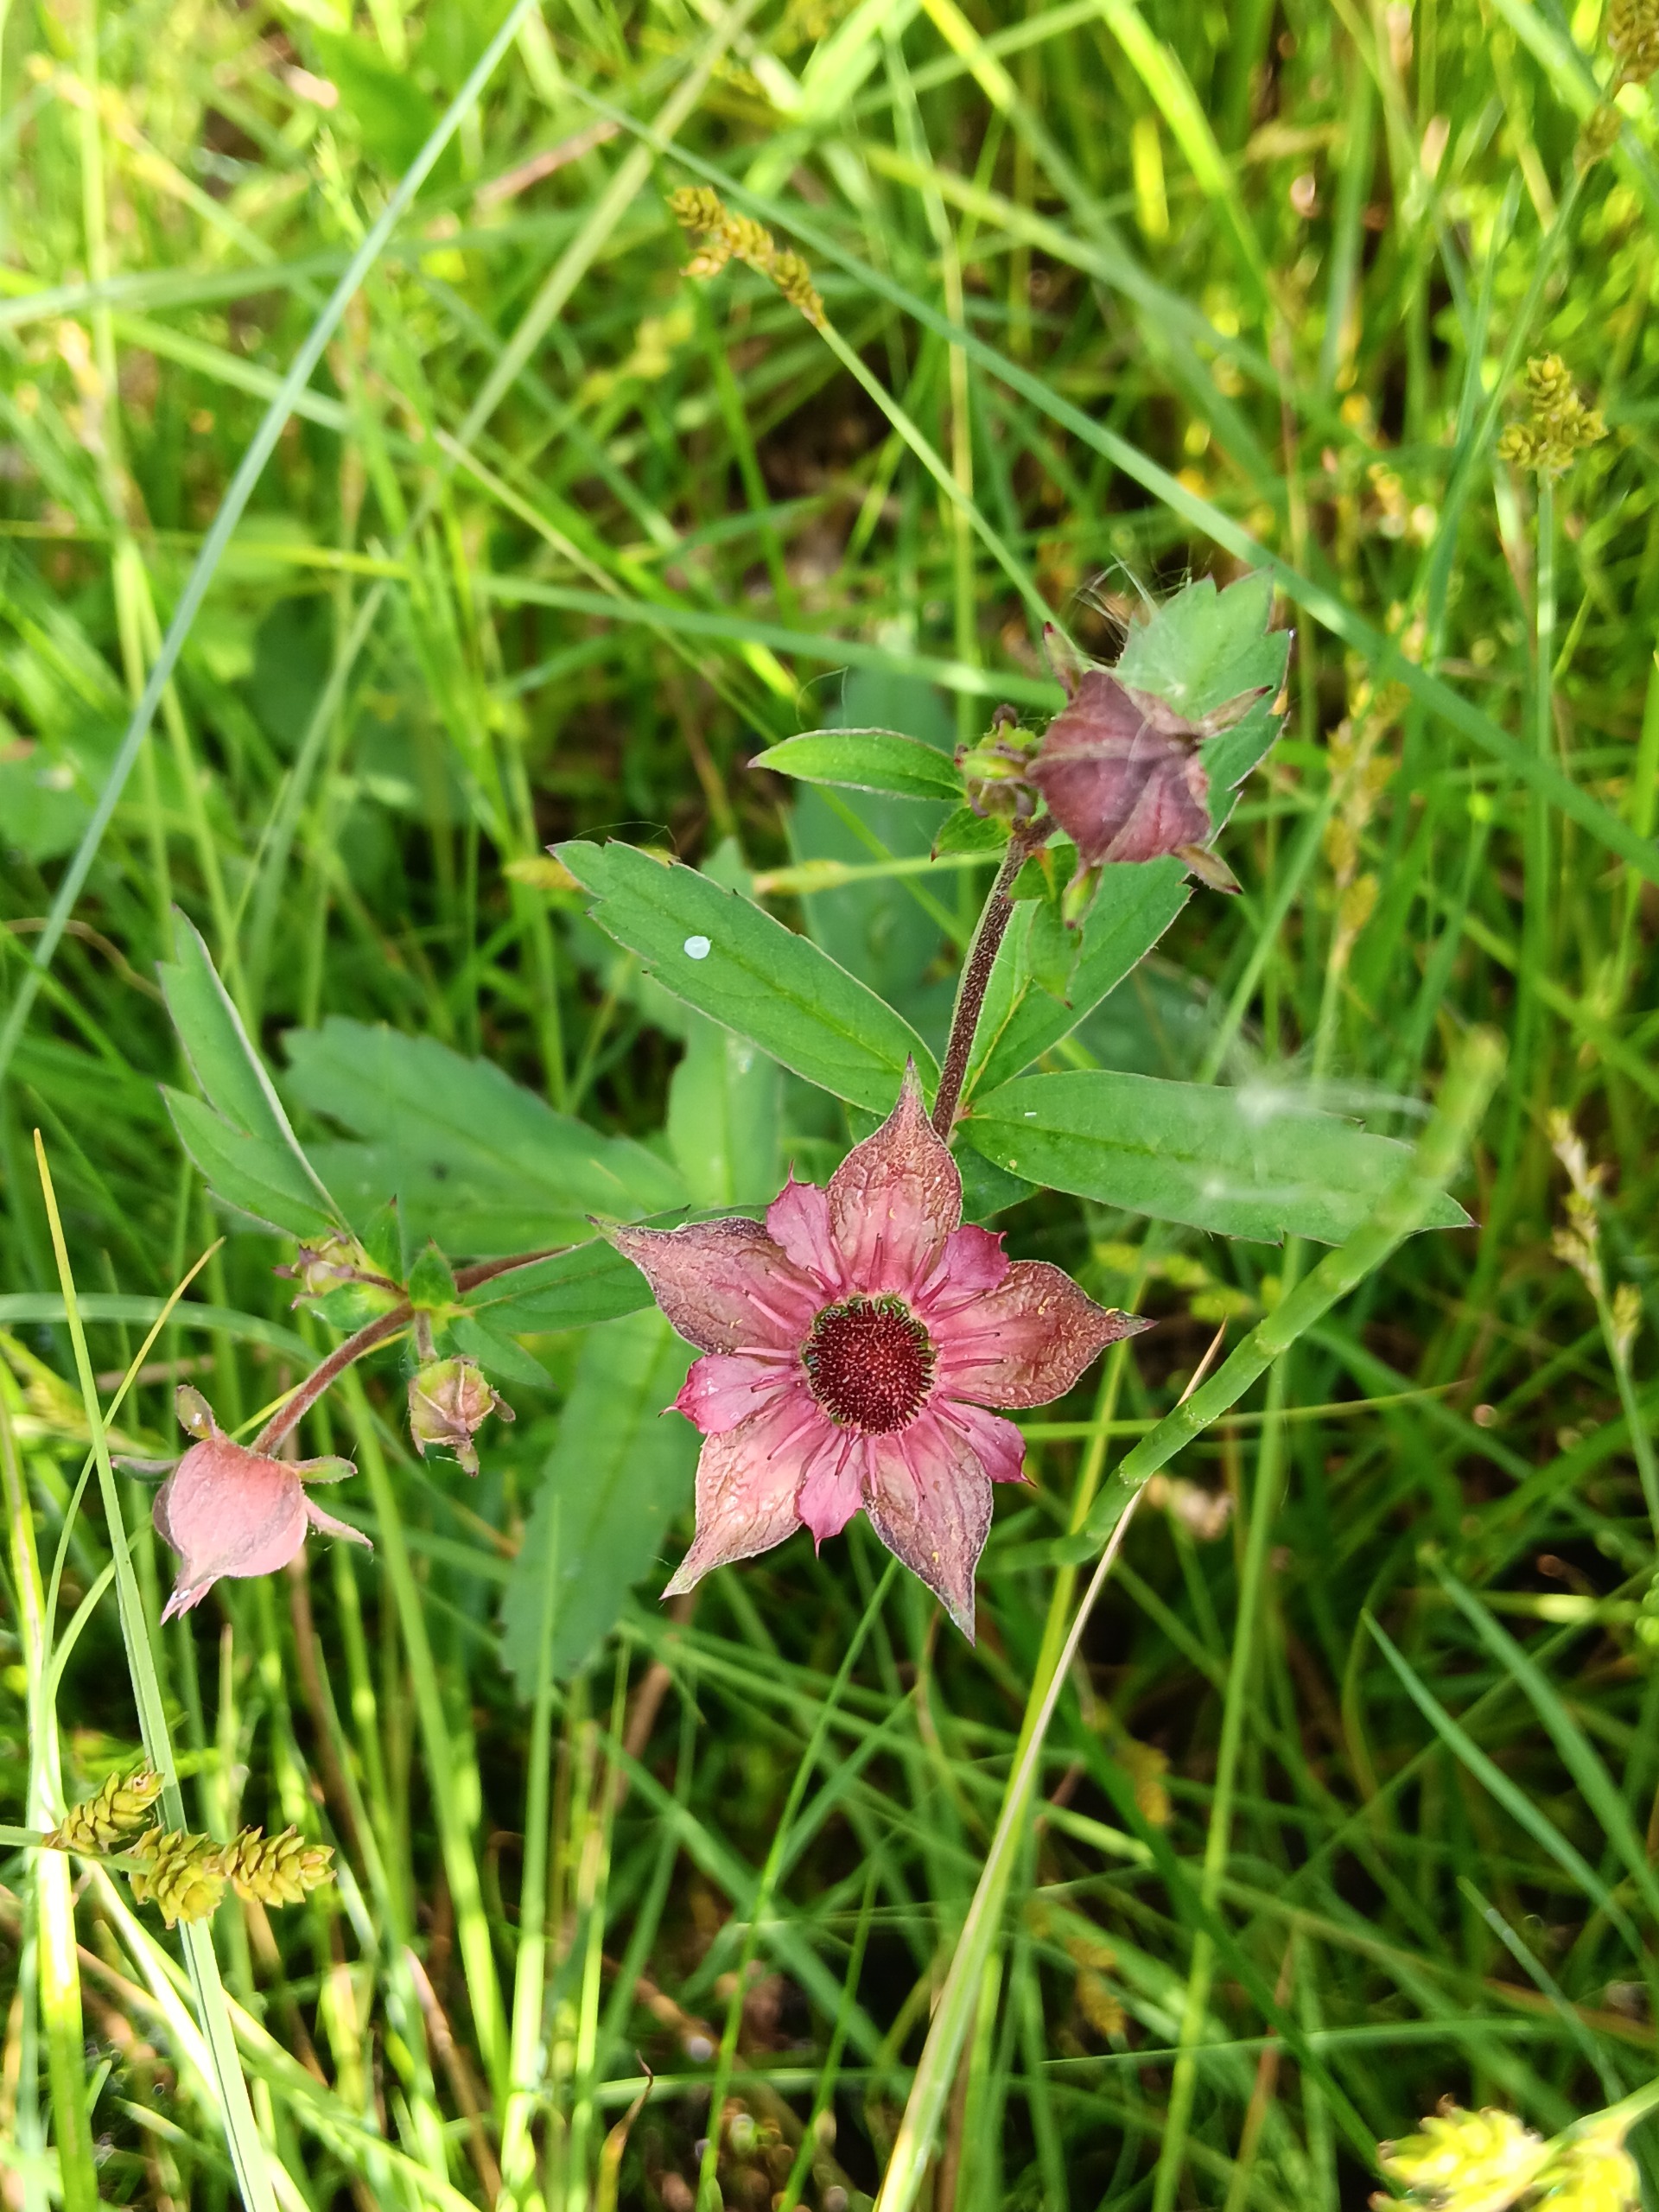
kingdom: Plantae
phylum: Tracheophyta
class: Magnoliopsida
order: Rosales
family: Rosaceae
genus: Comarum
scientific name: Comarum palustre
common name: Kragefod
